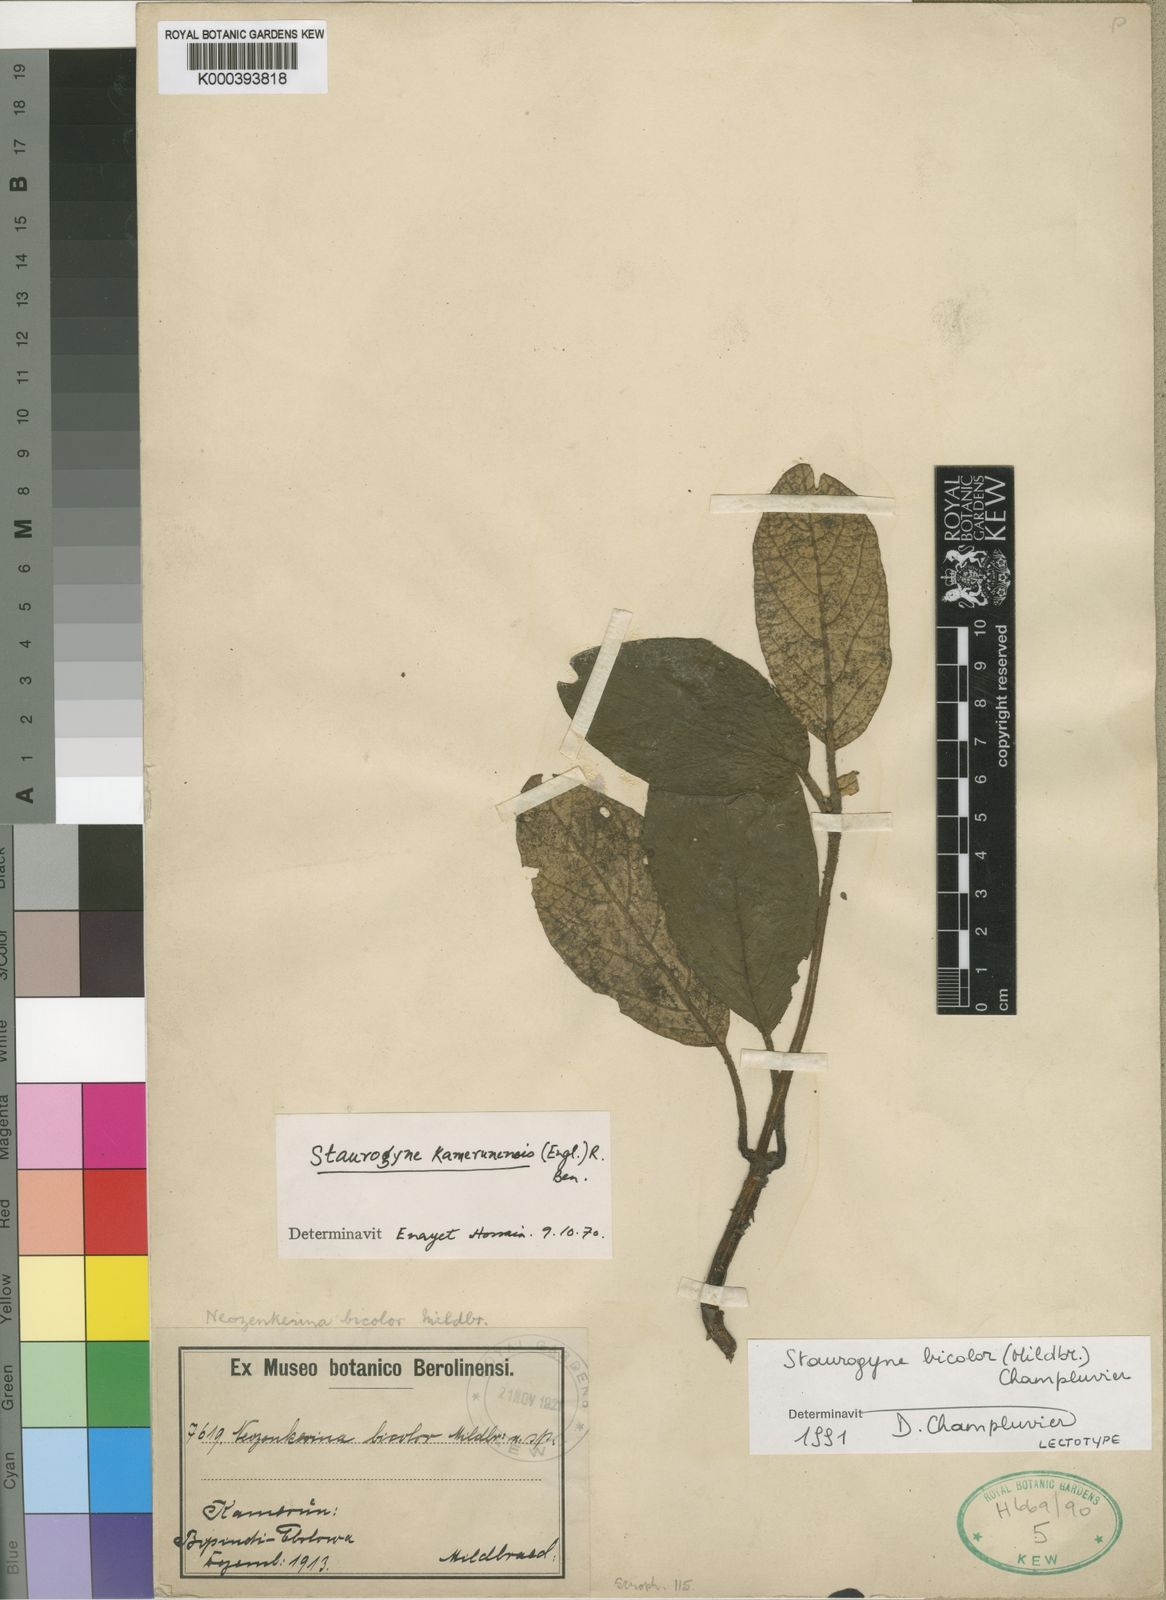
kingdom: Plantae
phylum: Tracheophyta
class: Magnoliopsida
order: Lamiales
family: Acanthaceae
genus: Staurogyne
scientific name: Staurogyne bicolor
